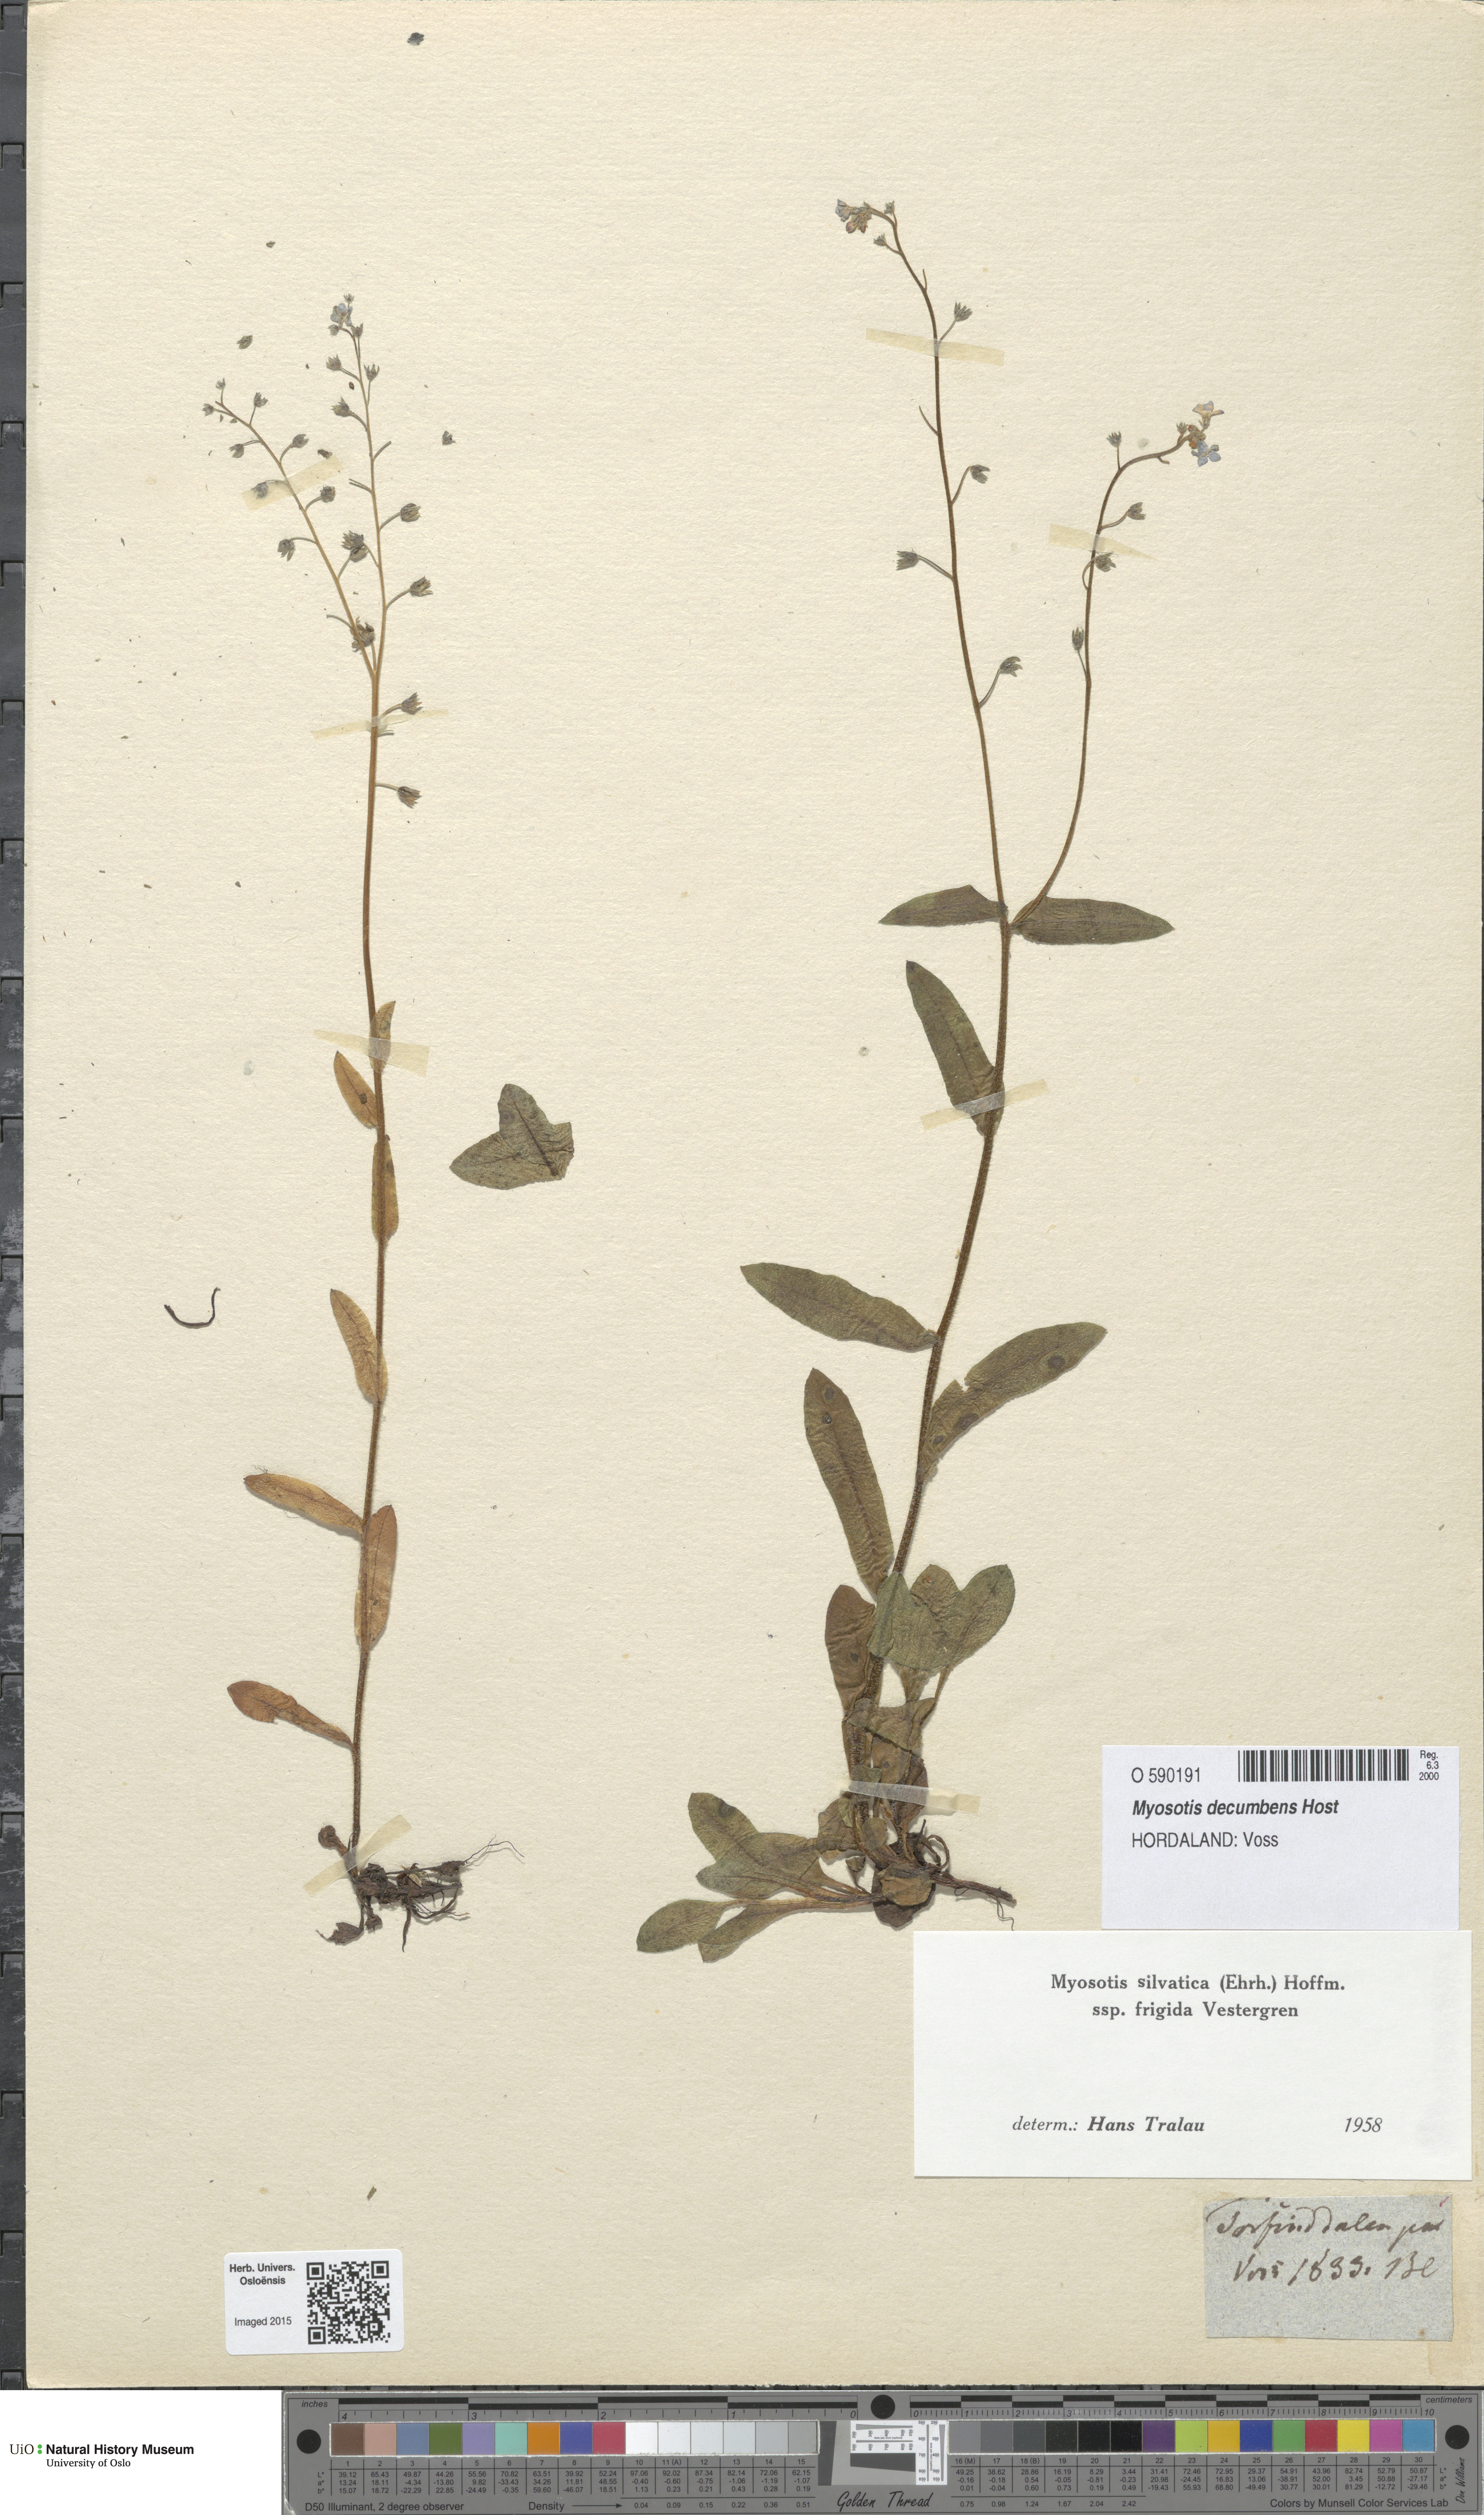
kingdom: Plantae
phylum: Tracheophyta
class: Magnoliopsida
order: Boraginales
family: Boraginaceae
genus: Myosotis
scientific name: Myosotis decumbens
